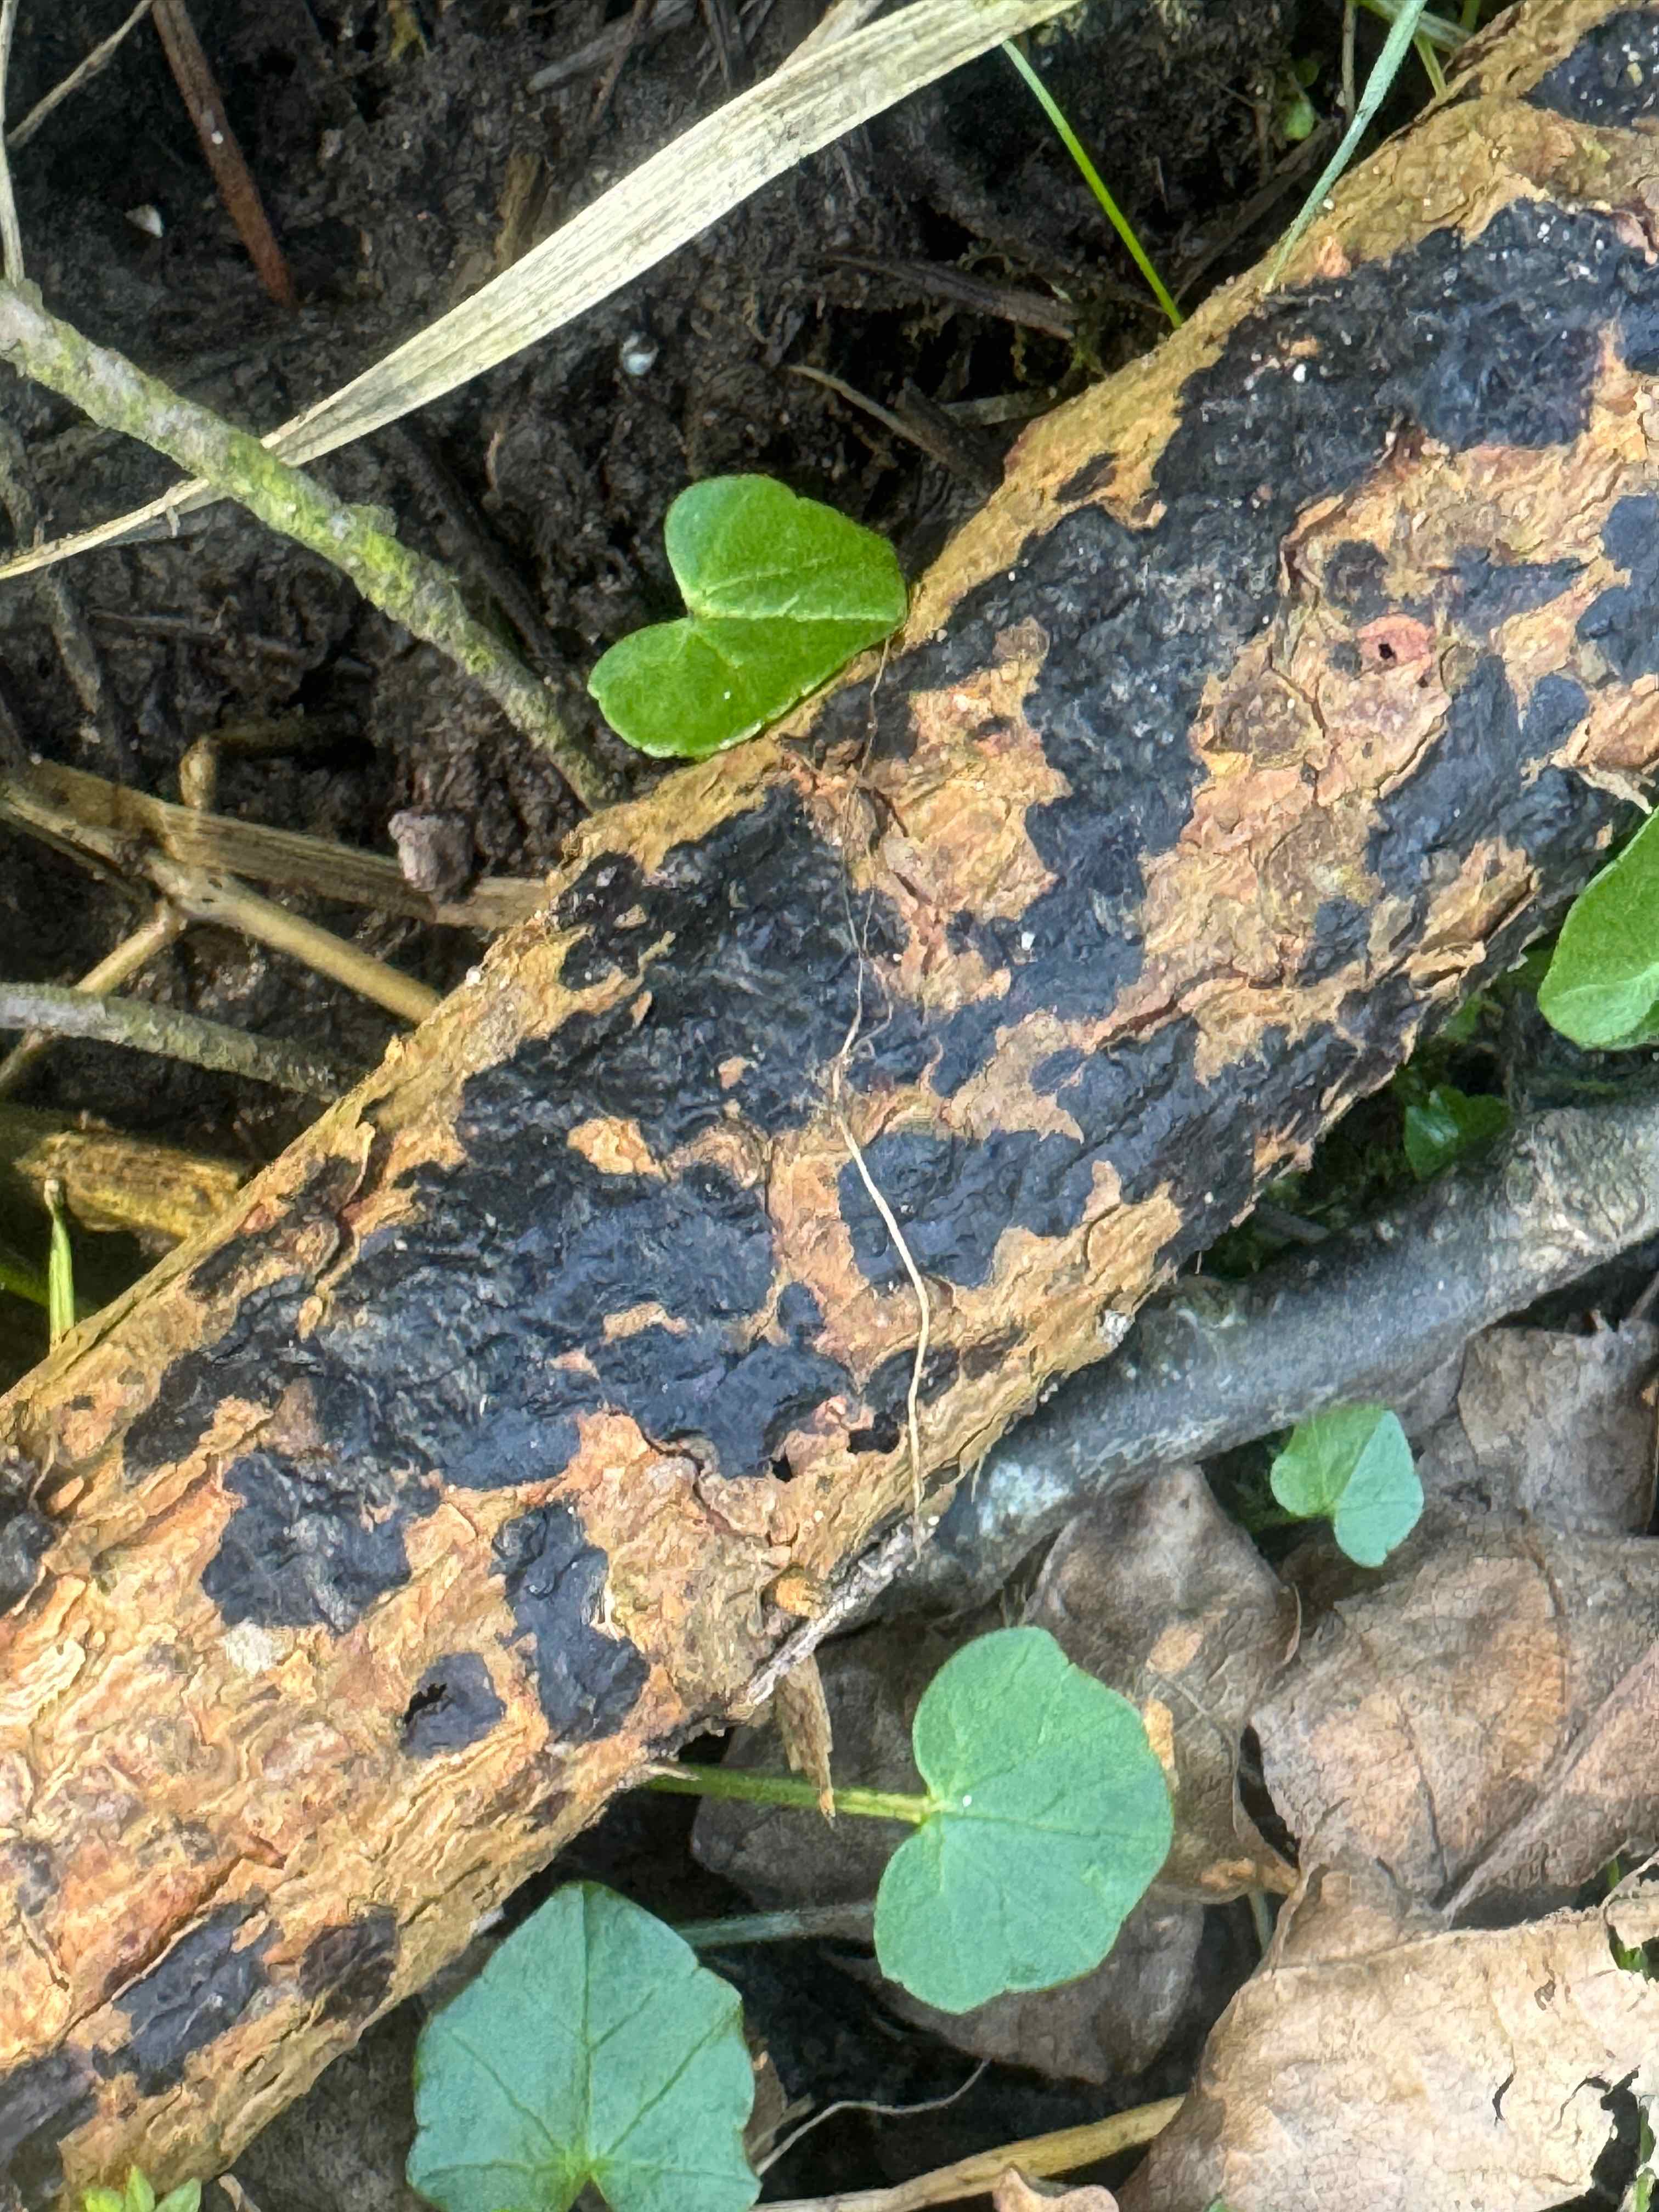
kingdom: Fungi
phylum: Basidiomycota
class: Agaricomycetes
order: Auriculariales
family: Auriculariaceae
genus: Exidia
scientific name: Exidia pithya
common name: gran-bævretop
